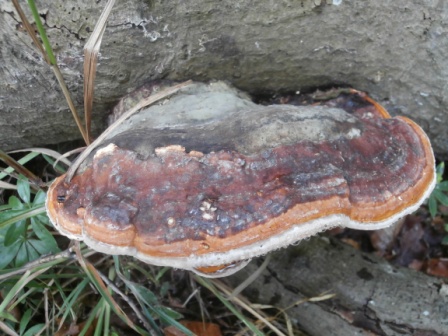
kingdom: Fungi
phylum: Basidiomycota
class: Agaricomycetes
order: Polyporales
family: Fomitopsidaceae
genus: Fomitopsis
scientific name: Fomitopsis pinicola
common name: randbæltet hovporesvamp
